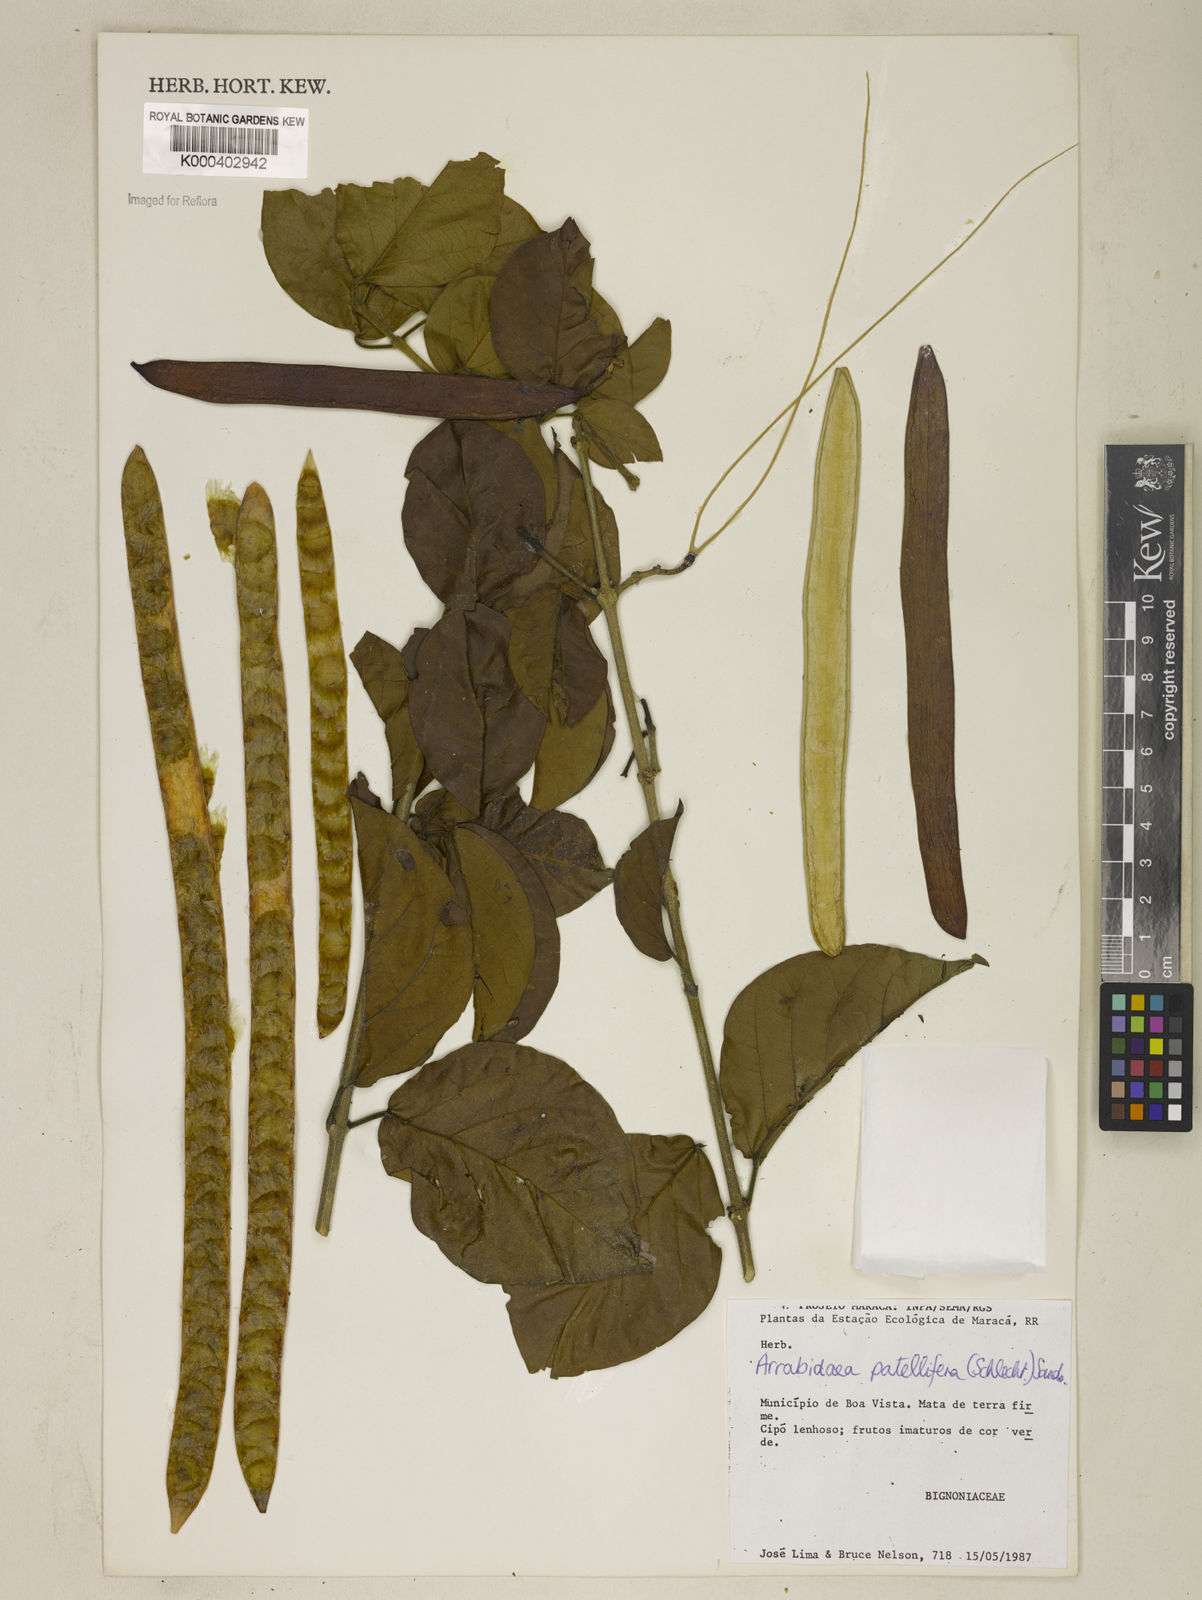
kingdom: Plantae
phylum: Tracheophyta
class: Magnoliopsida
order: Lamiales
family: Bignoniaceae
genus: Fridericia
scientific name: Fridericia patellifera
